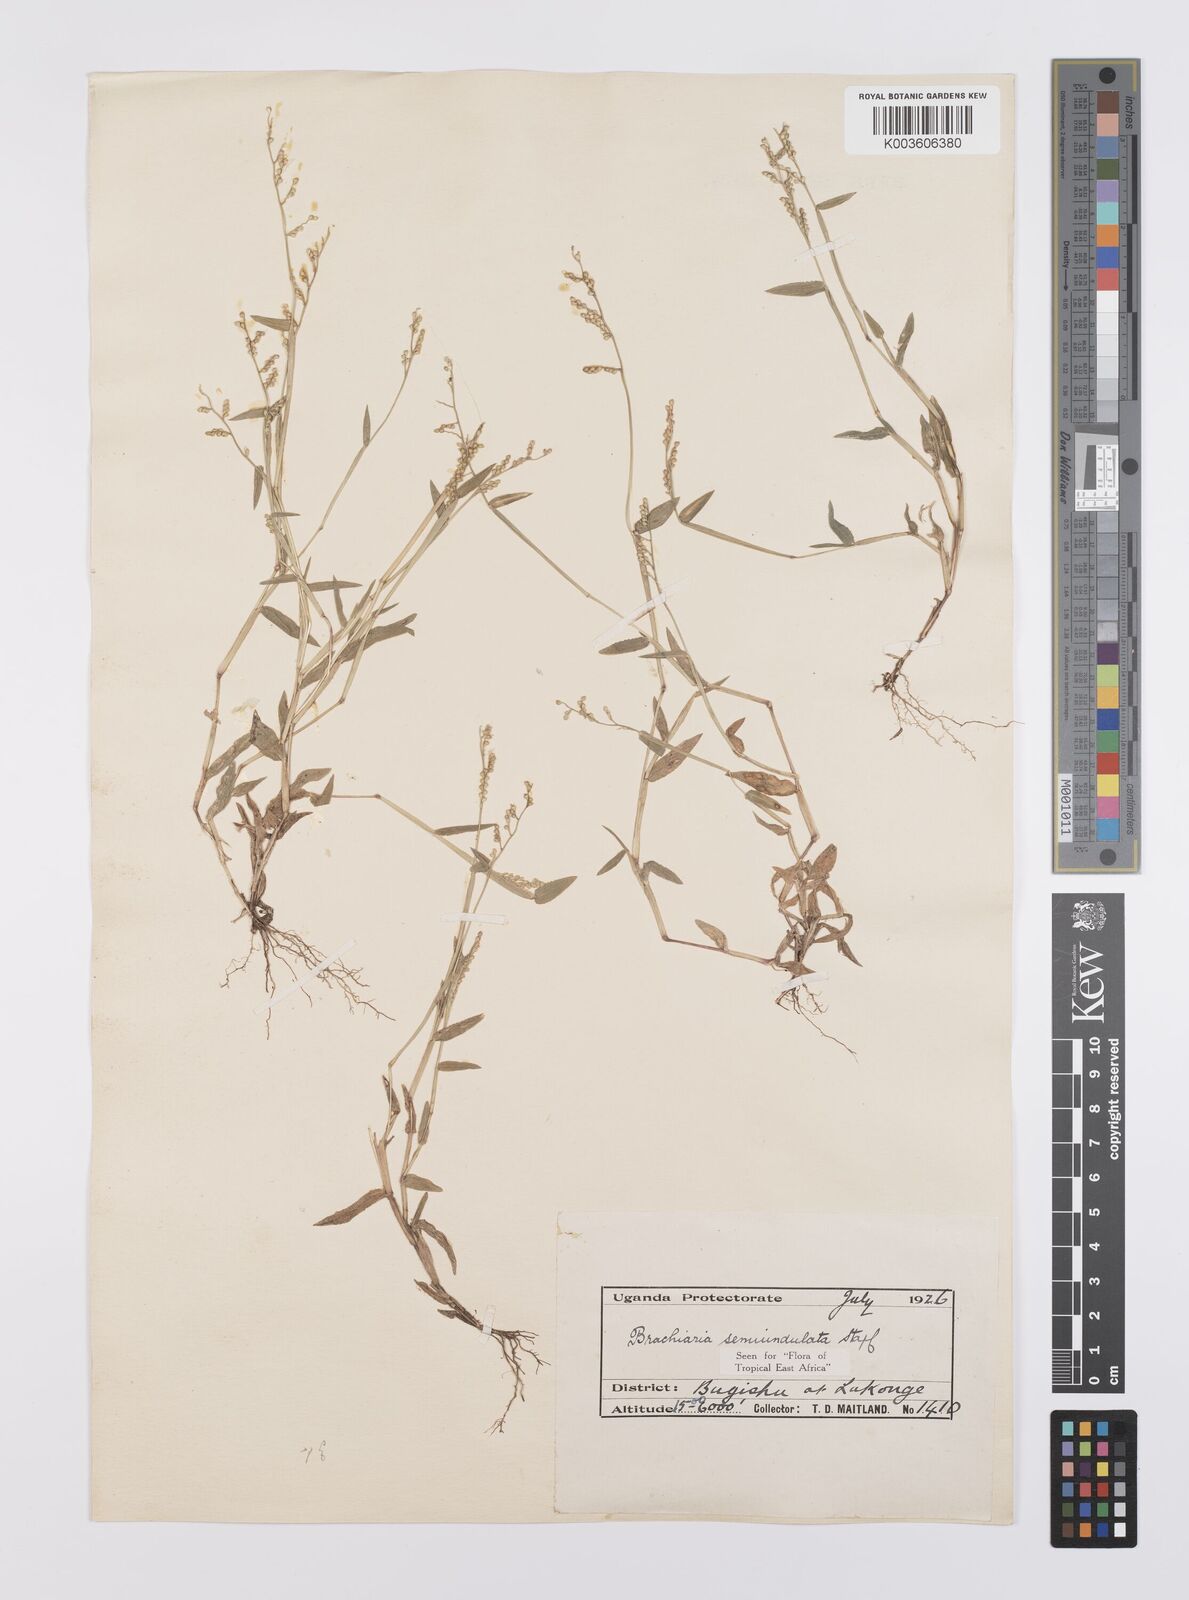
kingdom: Plantae
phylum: Tracheophyta
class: Liliopsida
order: Poales
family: Poaceae
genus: Urochloa
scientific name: Urochloa semiundulata
